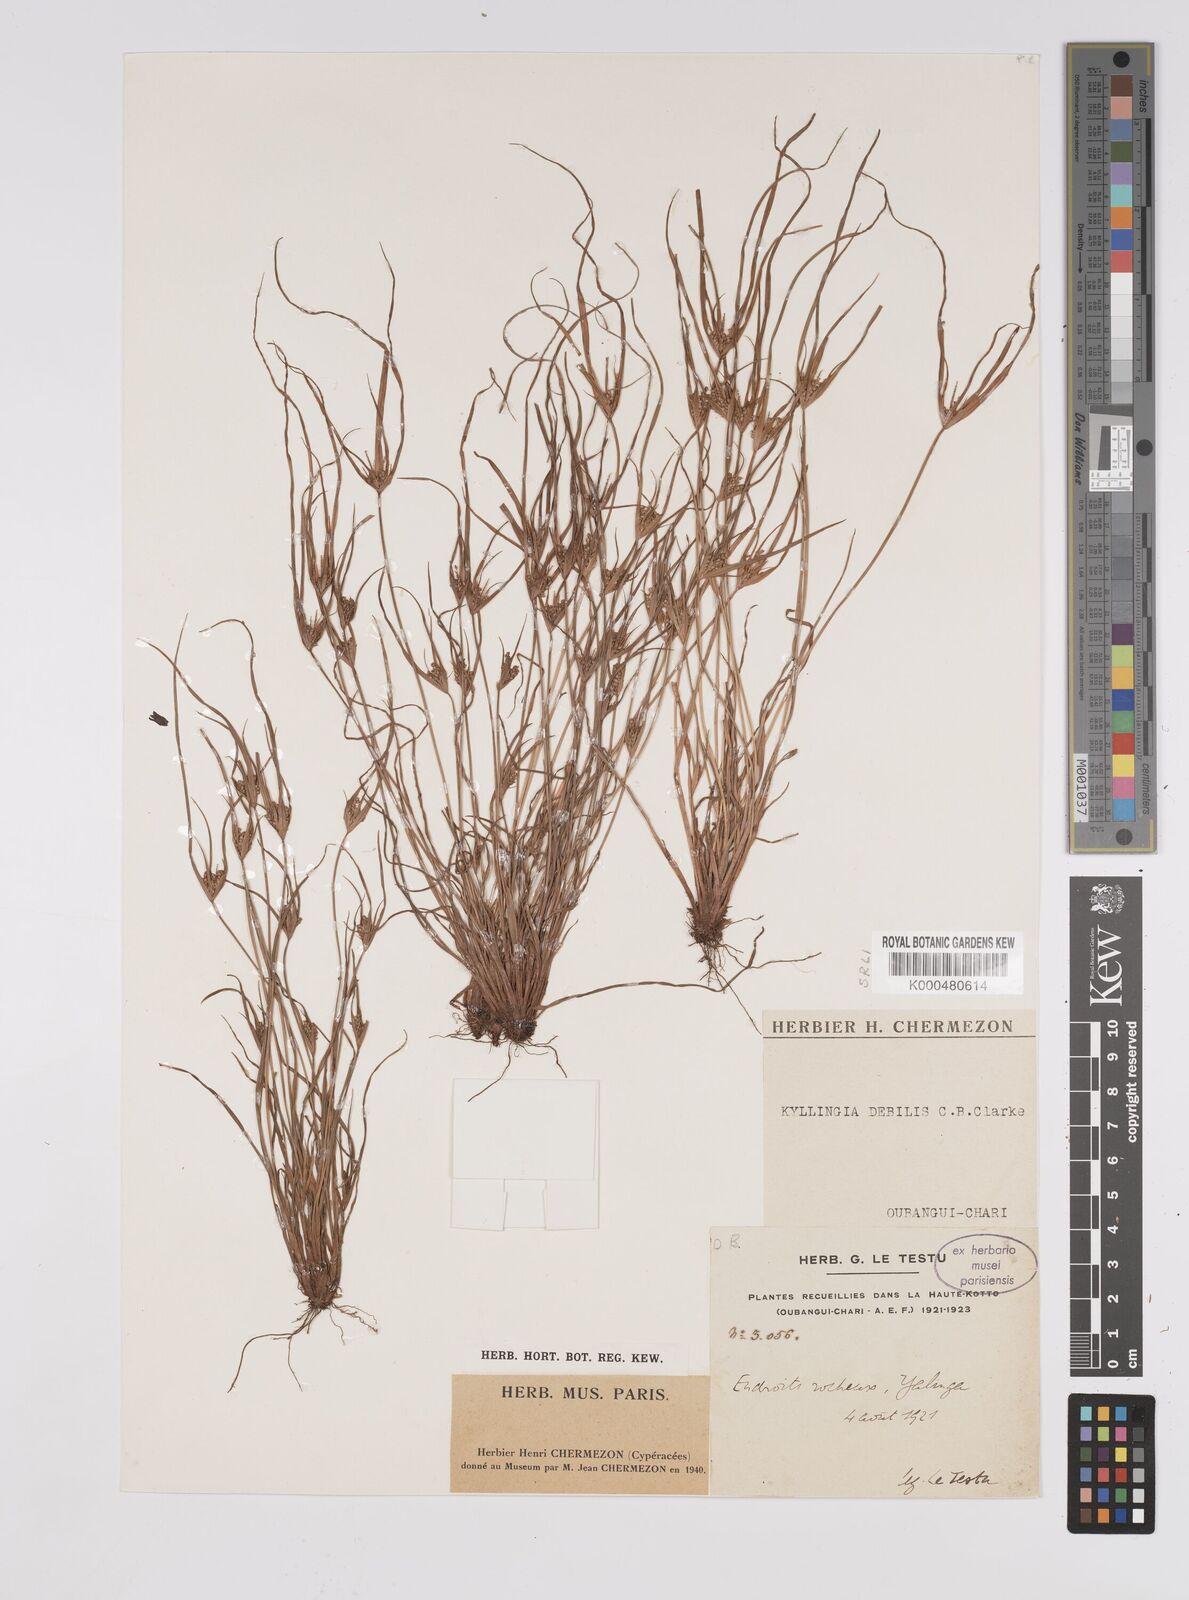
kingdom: Plantae
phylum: Tracheophyta
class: Liliopsida
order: Poales
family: Cyperaceae
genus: Cyperus
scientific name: Cyperus leptorhachis
